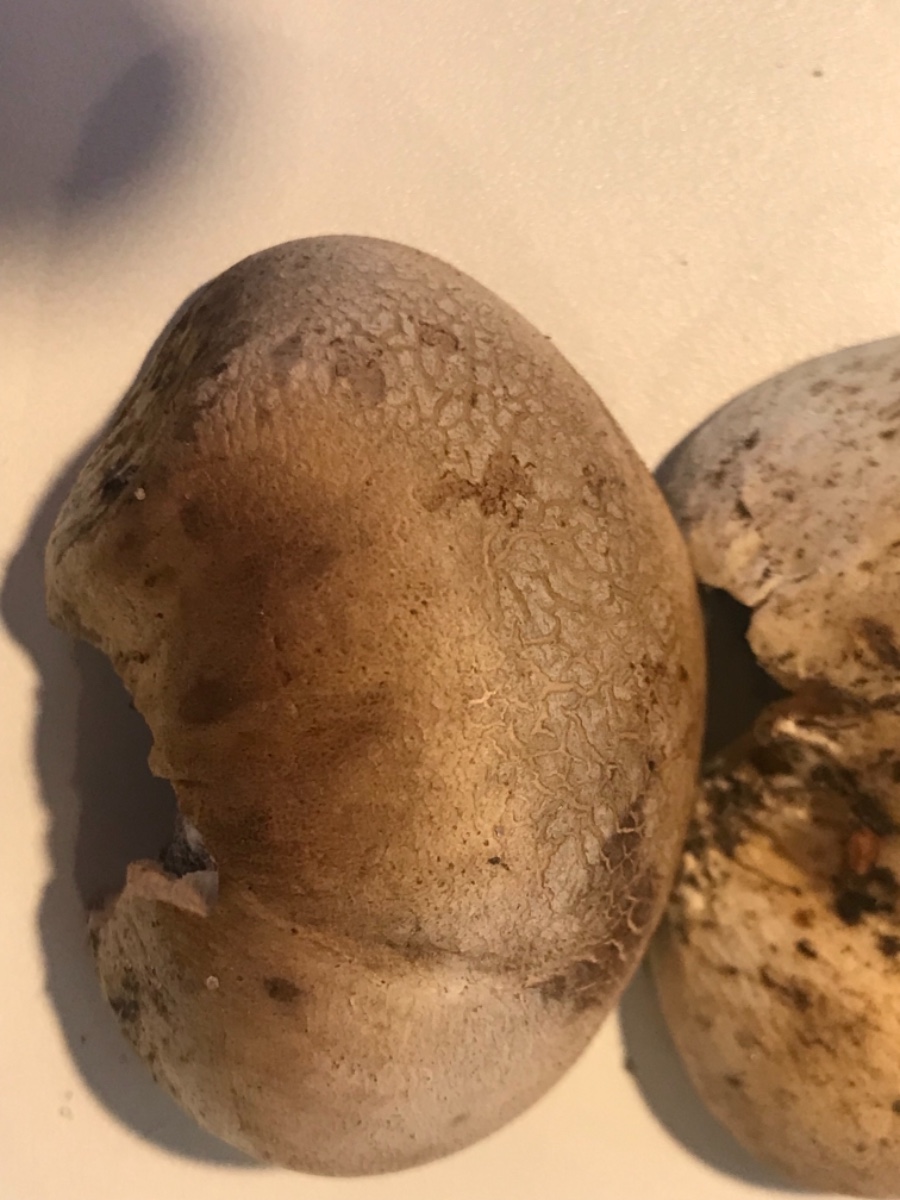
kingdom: Fungi
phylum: Basidiomycota
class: Agaricomycetes
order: Boletales
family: Sclerodermataceae
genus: Scleroderma
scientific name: Scleroderma bovista
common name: bovist-bruskbold
